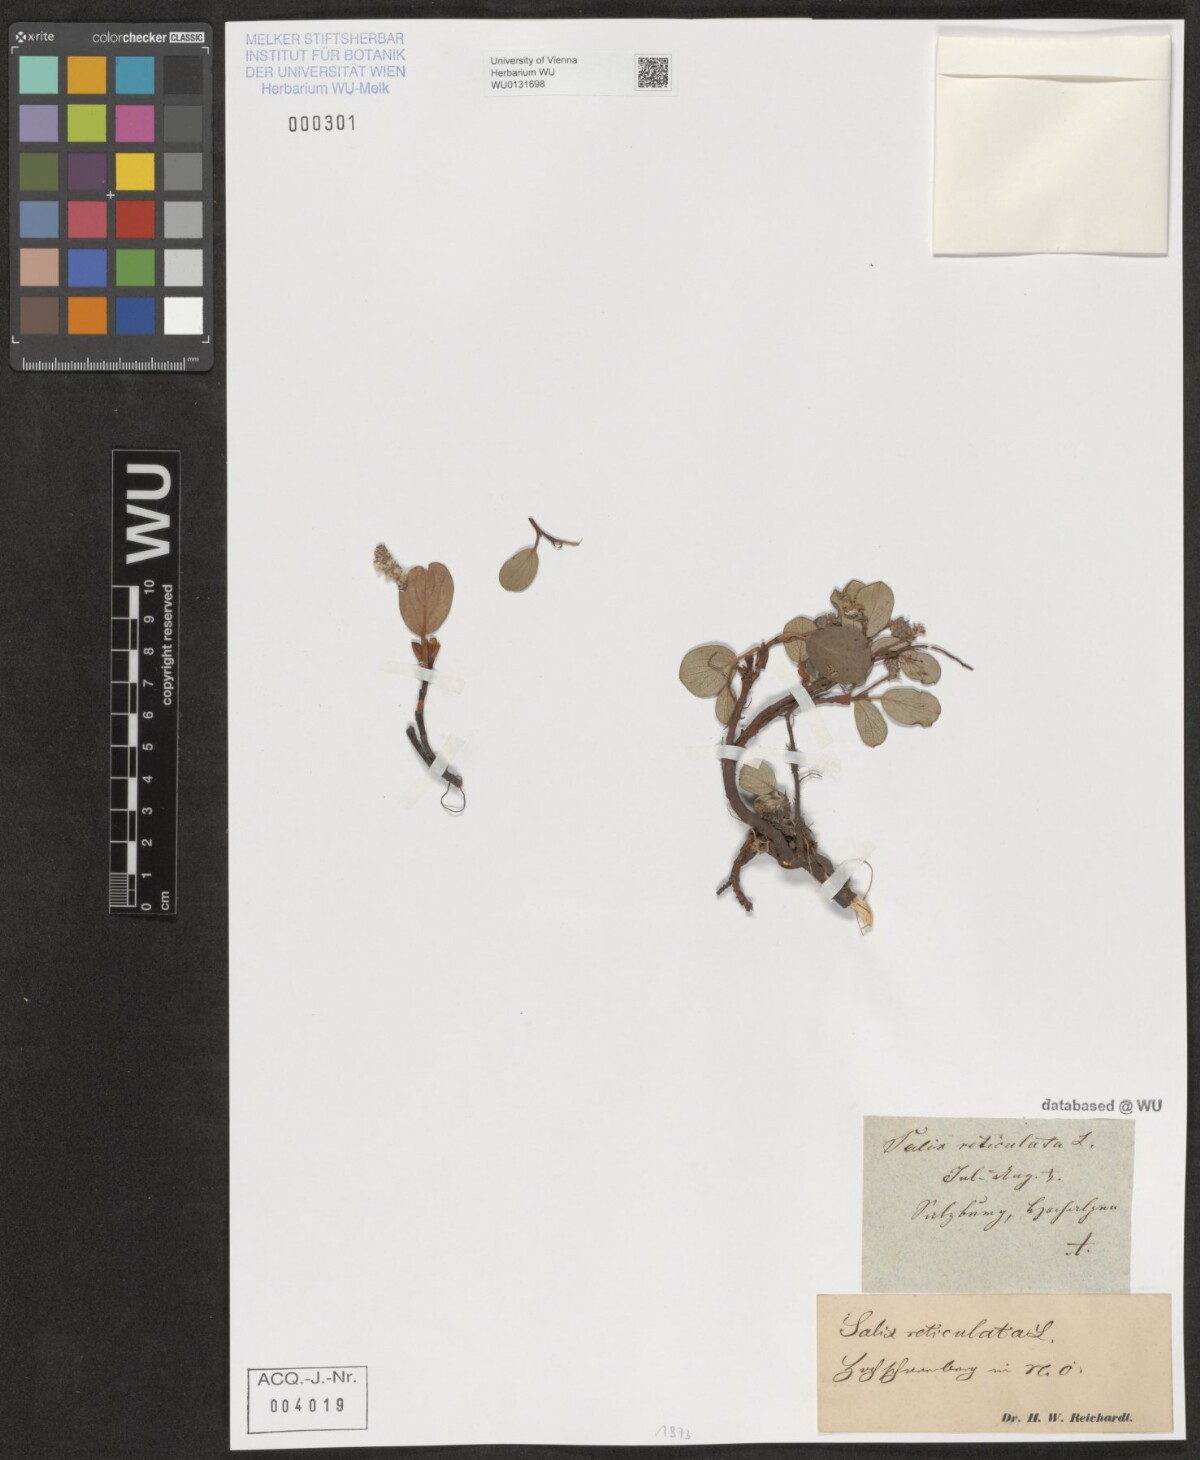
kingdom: Plantae
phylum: Tracheophyta
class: Magnoliopsida
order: Malpighiales
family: Salicaceae
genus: Salix
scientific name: Salix reticulata
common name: Net-leaved willow
